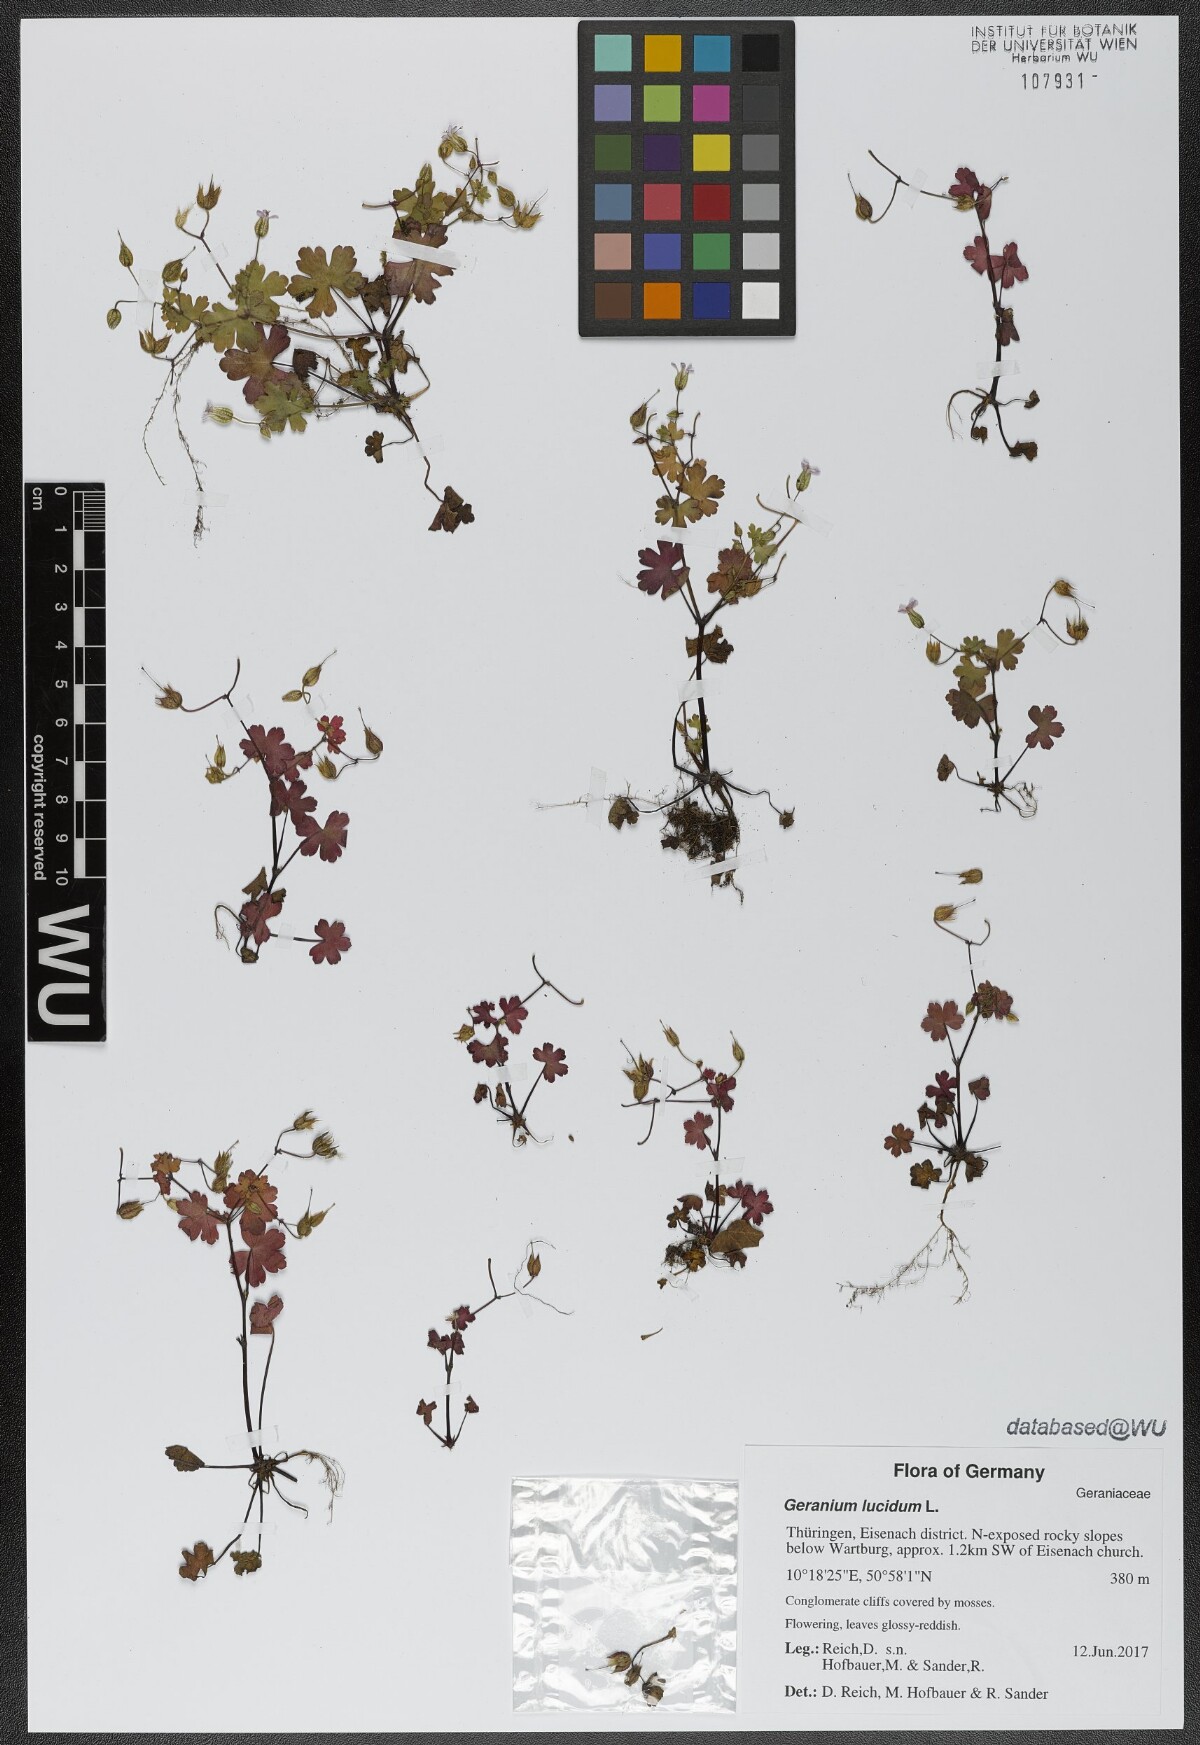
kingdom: Plantae
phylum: Tracheophyta
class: Magnoliopsida
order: Geraniales
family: Geraniaceae
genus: Geranium
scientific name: Geranium lucidum
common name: Shining crane's-bill
